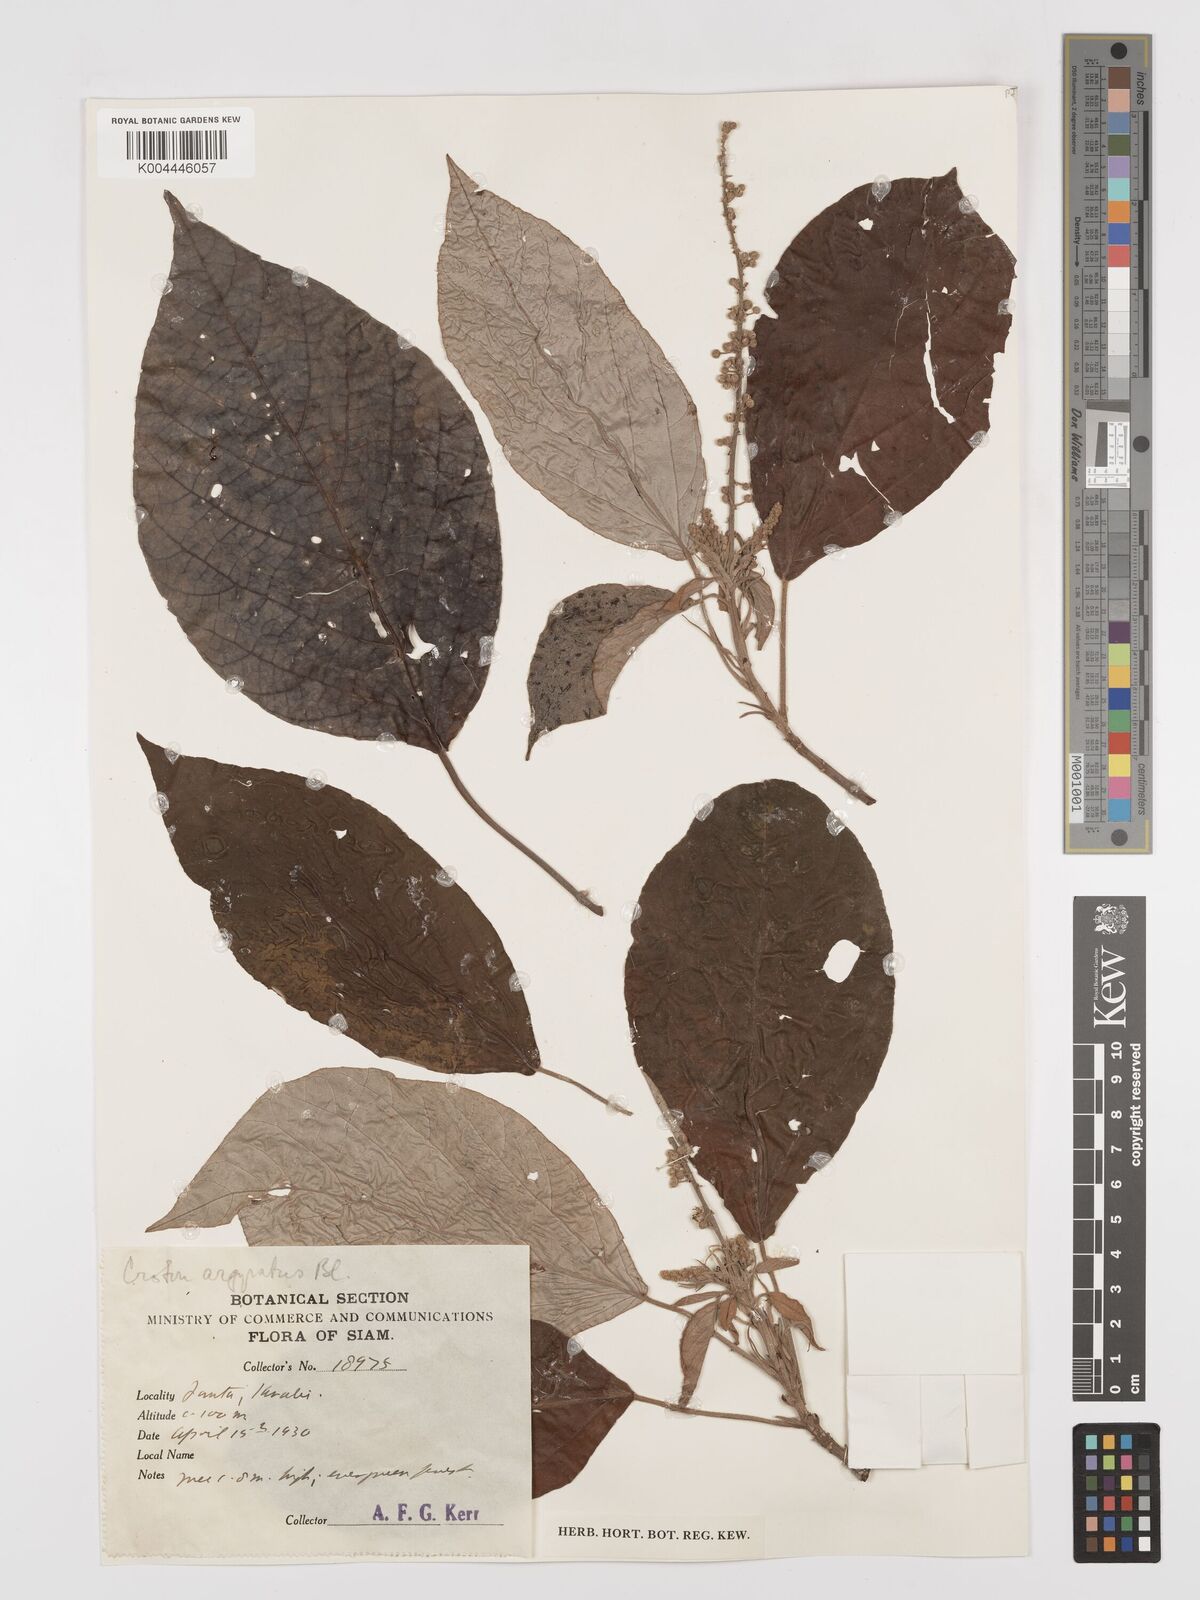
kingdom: Plantae
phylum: Tracheophyta
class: Magnoliopsida
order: Malpighiales
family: Euphorbiaceae
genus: Croton
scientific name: Croton argyratus
